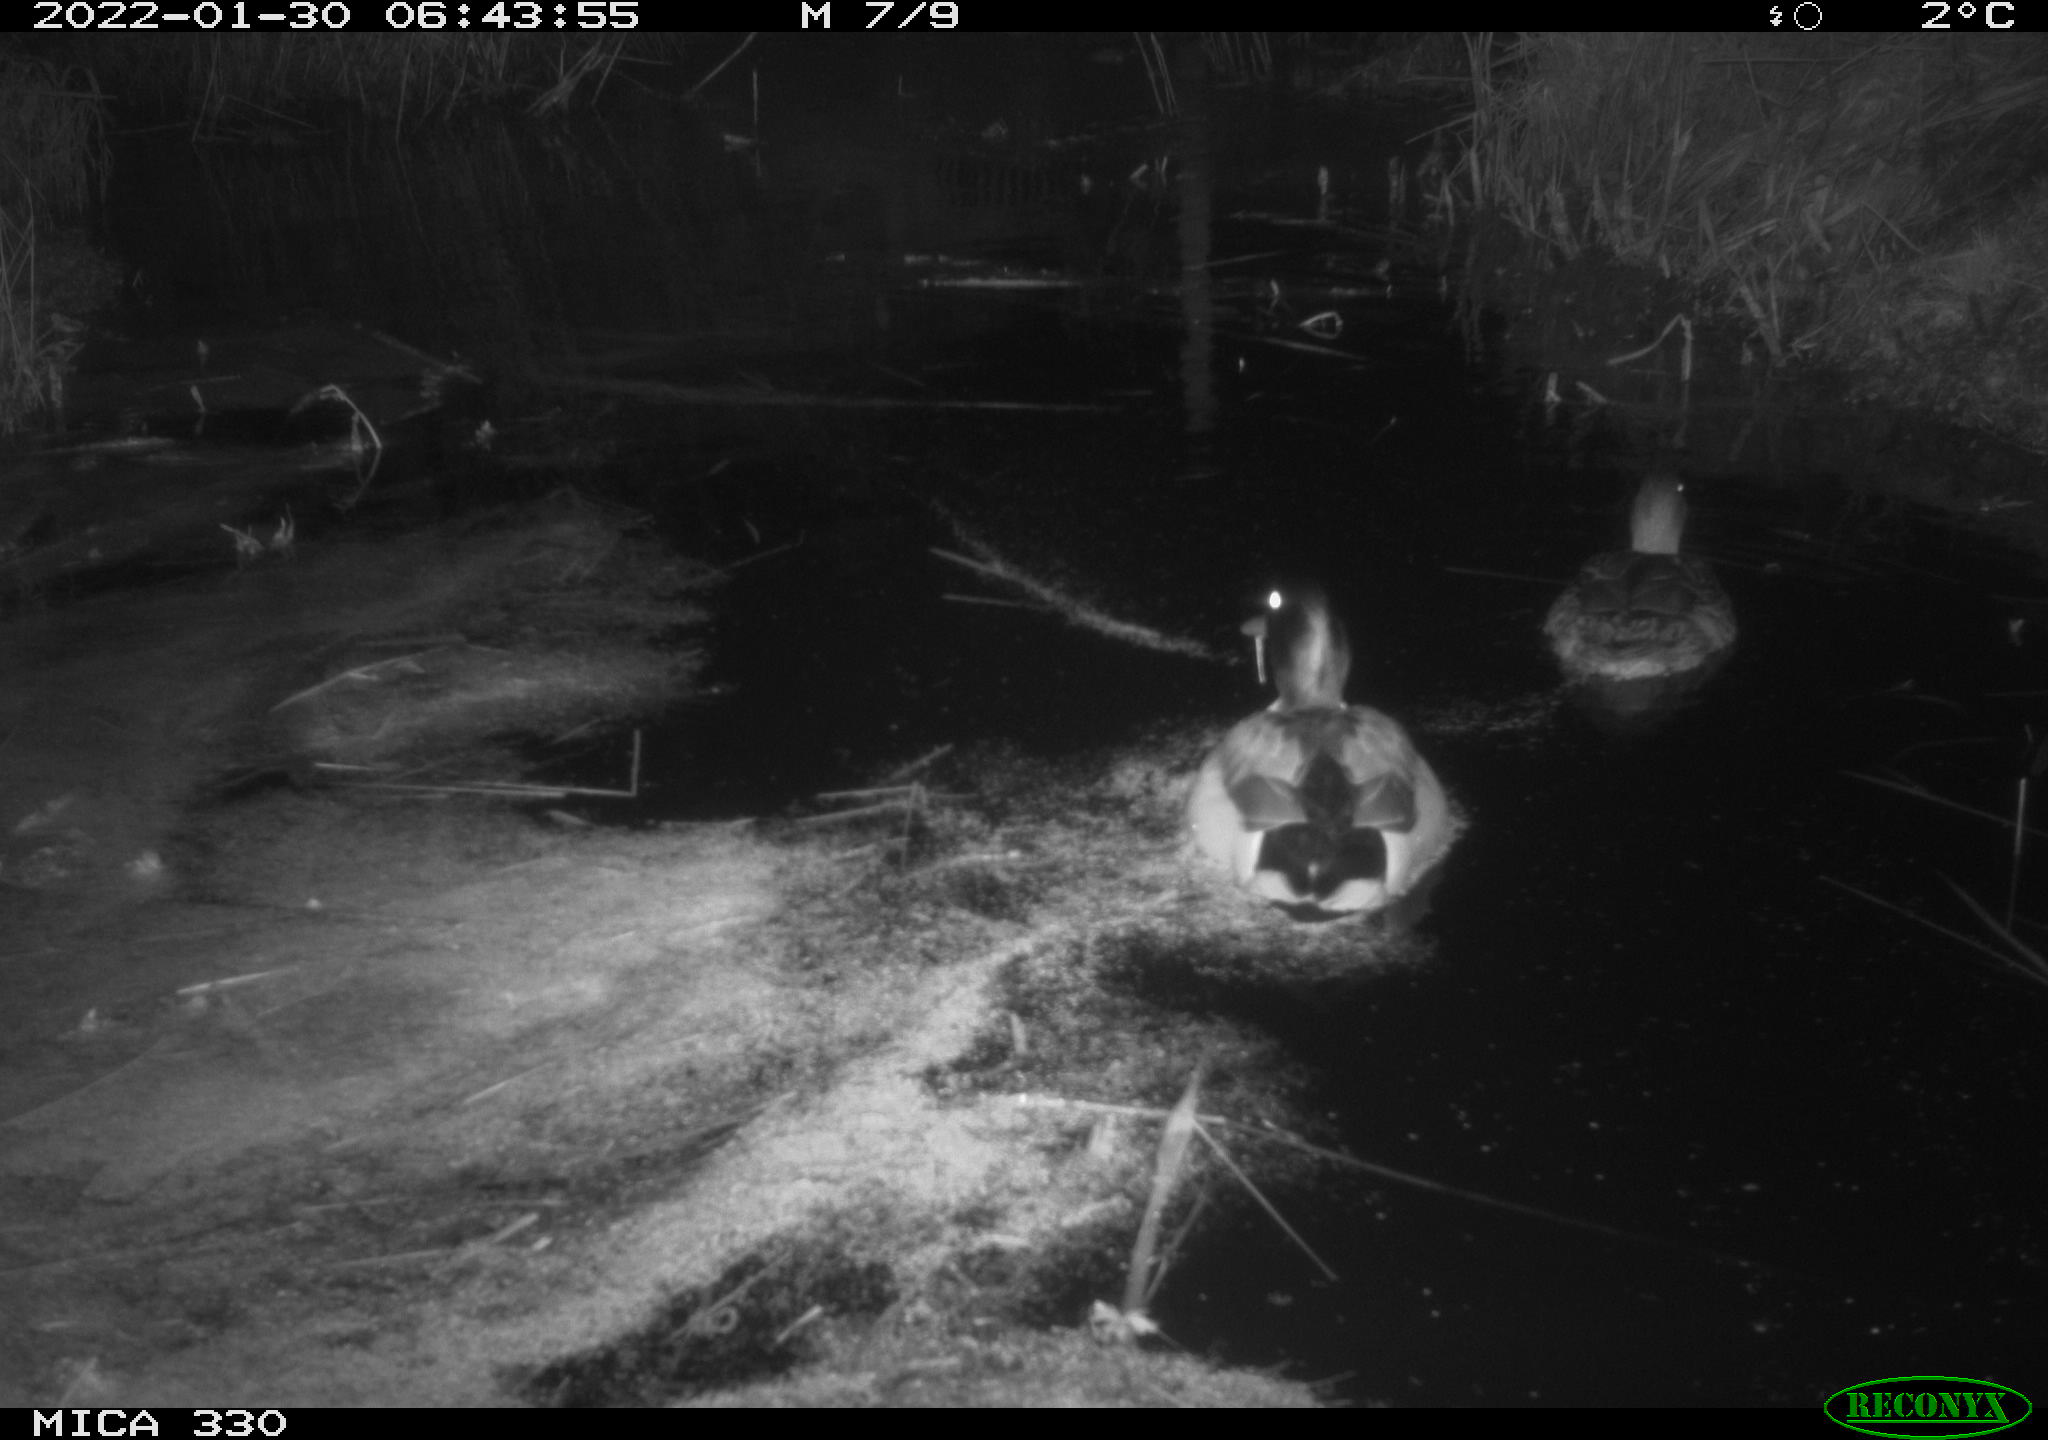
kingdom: Animalia
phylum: Chordata
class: Aves
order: Anseriformes
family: Anatidae
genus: Anas
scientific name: Anas platyrhynchos
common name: Mallard
